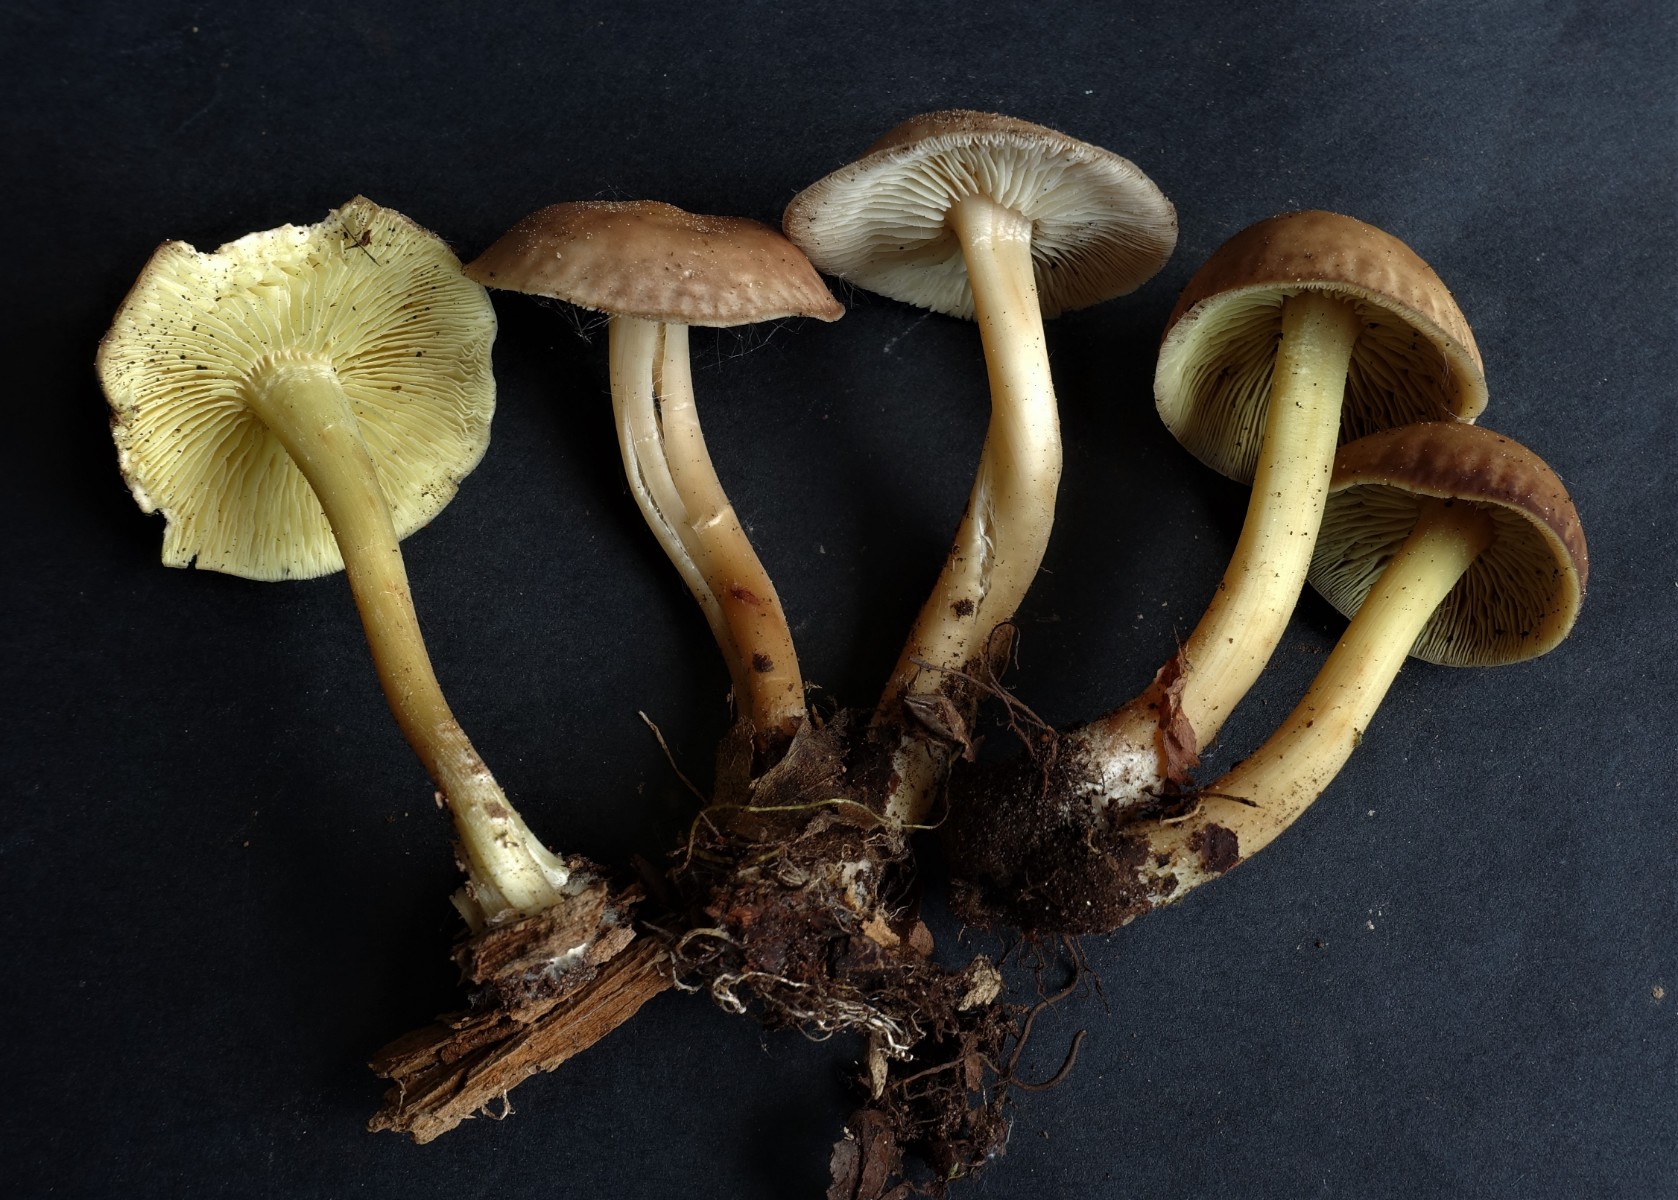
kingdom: Fungi
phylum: Basidiomycota
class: Agaricomycetes
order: Agaricales
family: Omphalotaceae
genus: Gymnopus
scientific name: Gymnopus ocior
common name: mørk fladhat
